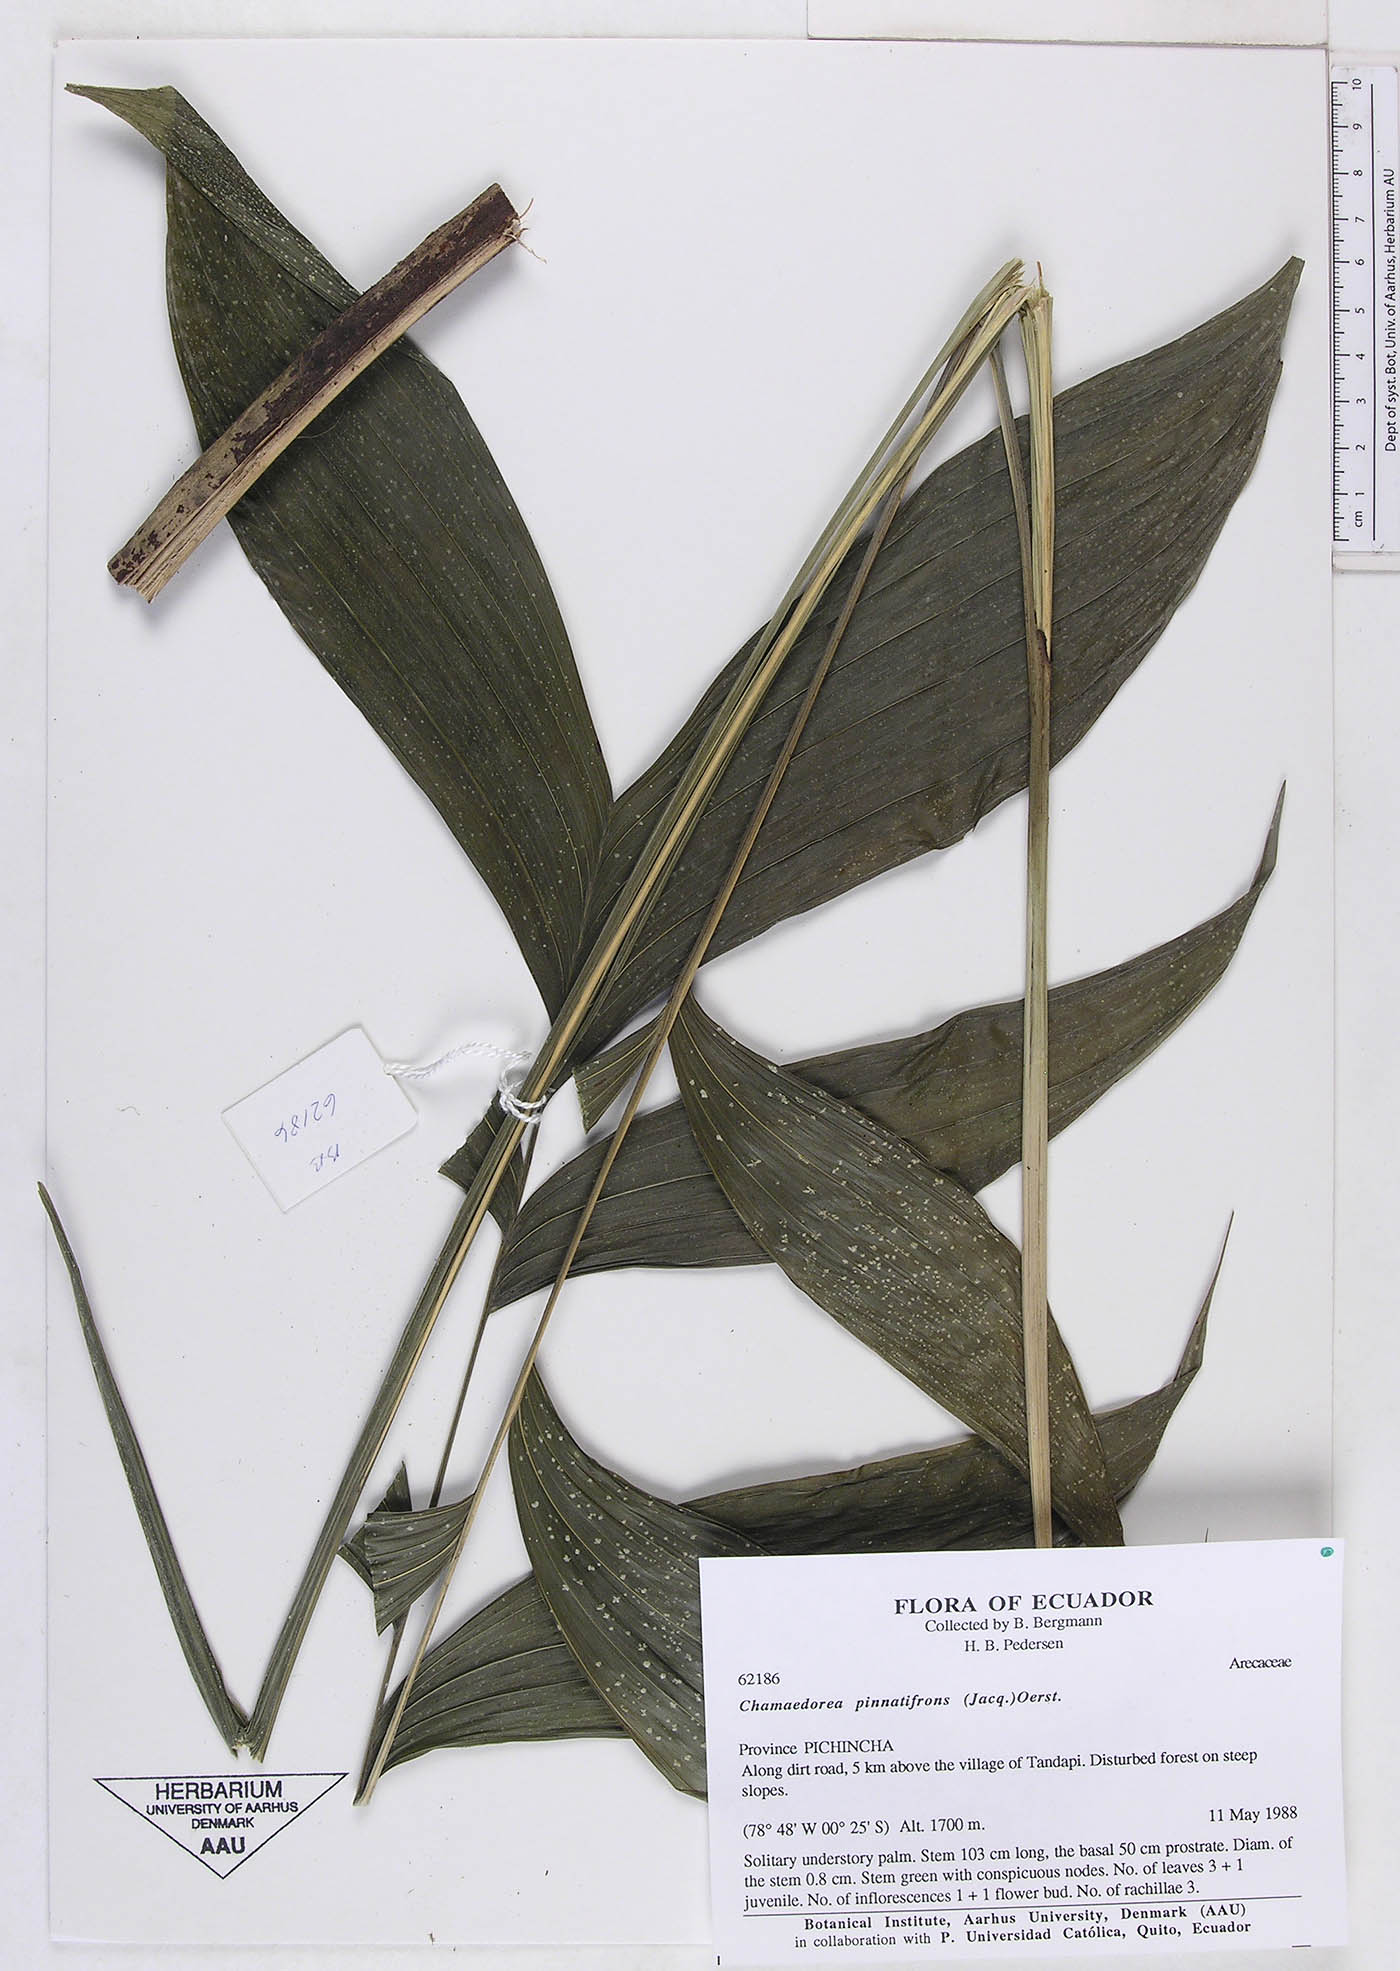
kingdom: Plantae
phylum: Tracheophyta
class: Liliopsida
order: Arecales
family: Arecaceae
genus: Chamaedorea
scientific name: Chamaedorea pinnatifrons
